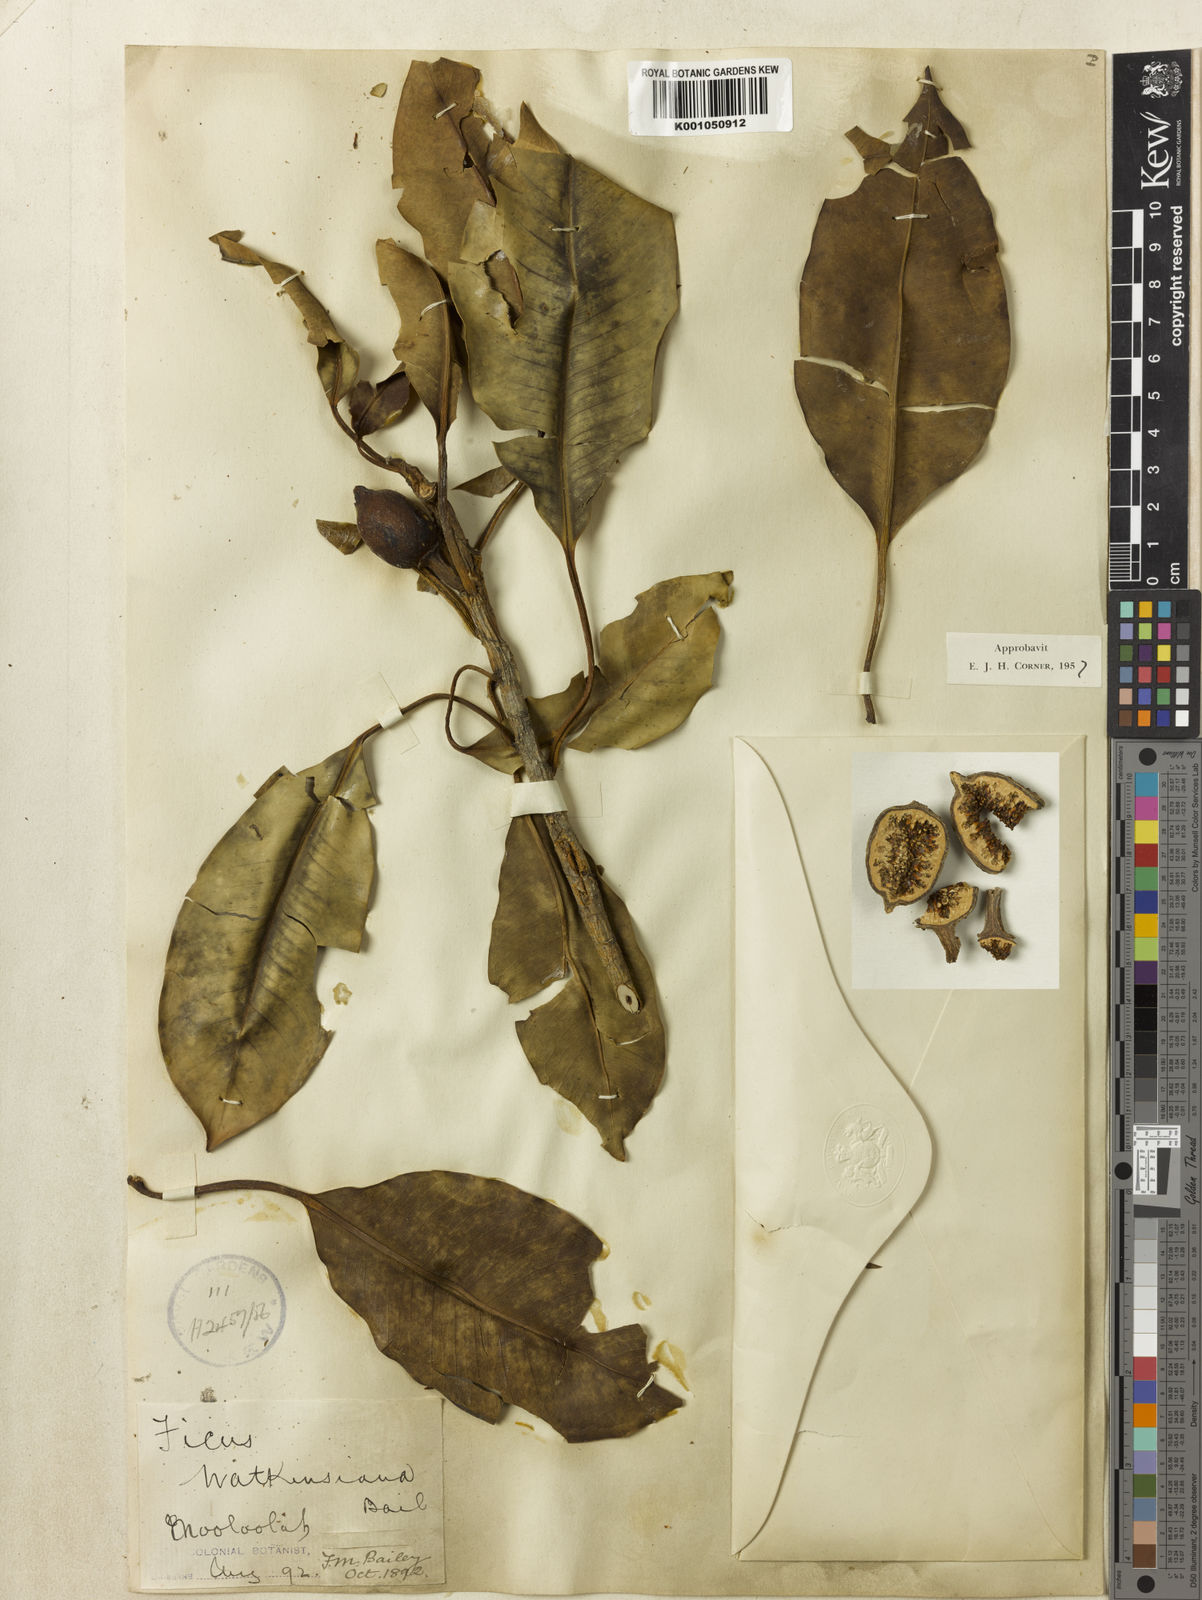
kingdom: Plantae
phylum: Tracheophyta
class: Magnoliopsida
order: Rosales
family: Moraceae
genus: Ficus
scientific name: Ficus watkinsiana
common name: Watkins fig
